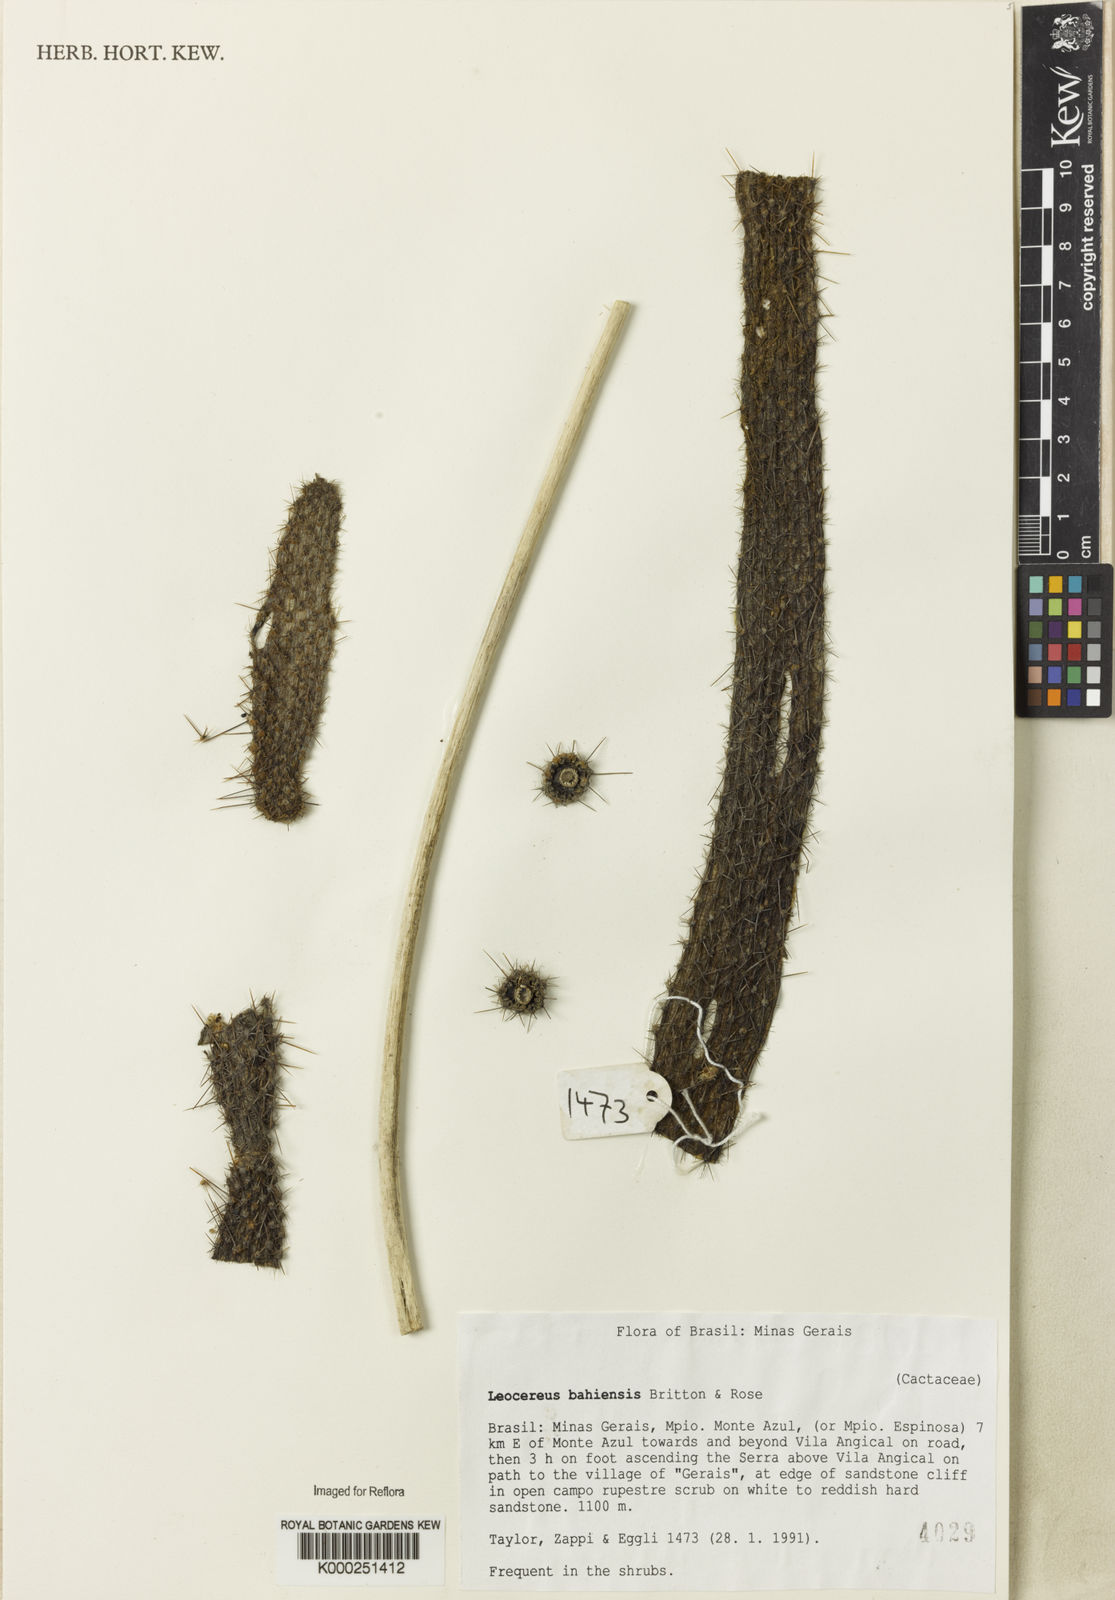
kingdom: Plantae
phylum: Tracheophyta
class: Magnoliopsida
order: Caryophyllales
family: Cactaceae
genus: Leocereus
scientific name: Leocereus bahiensis
